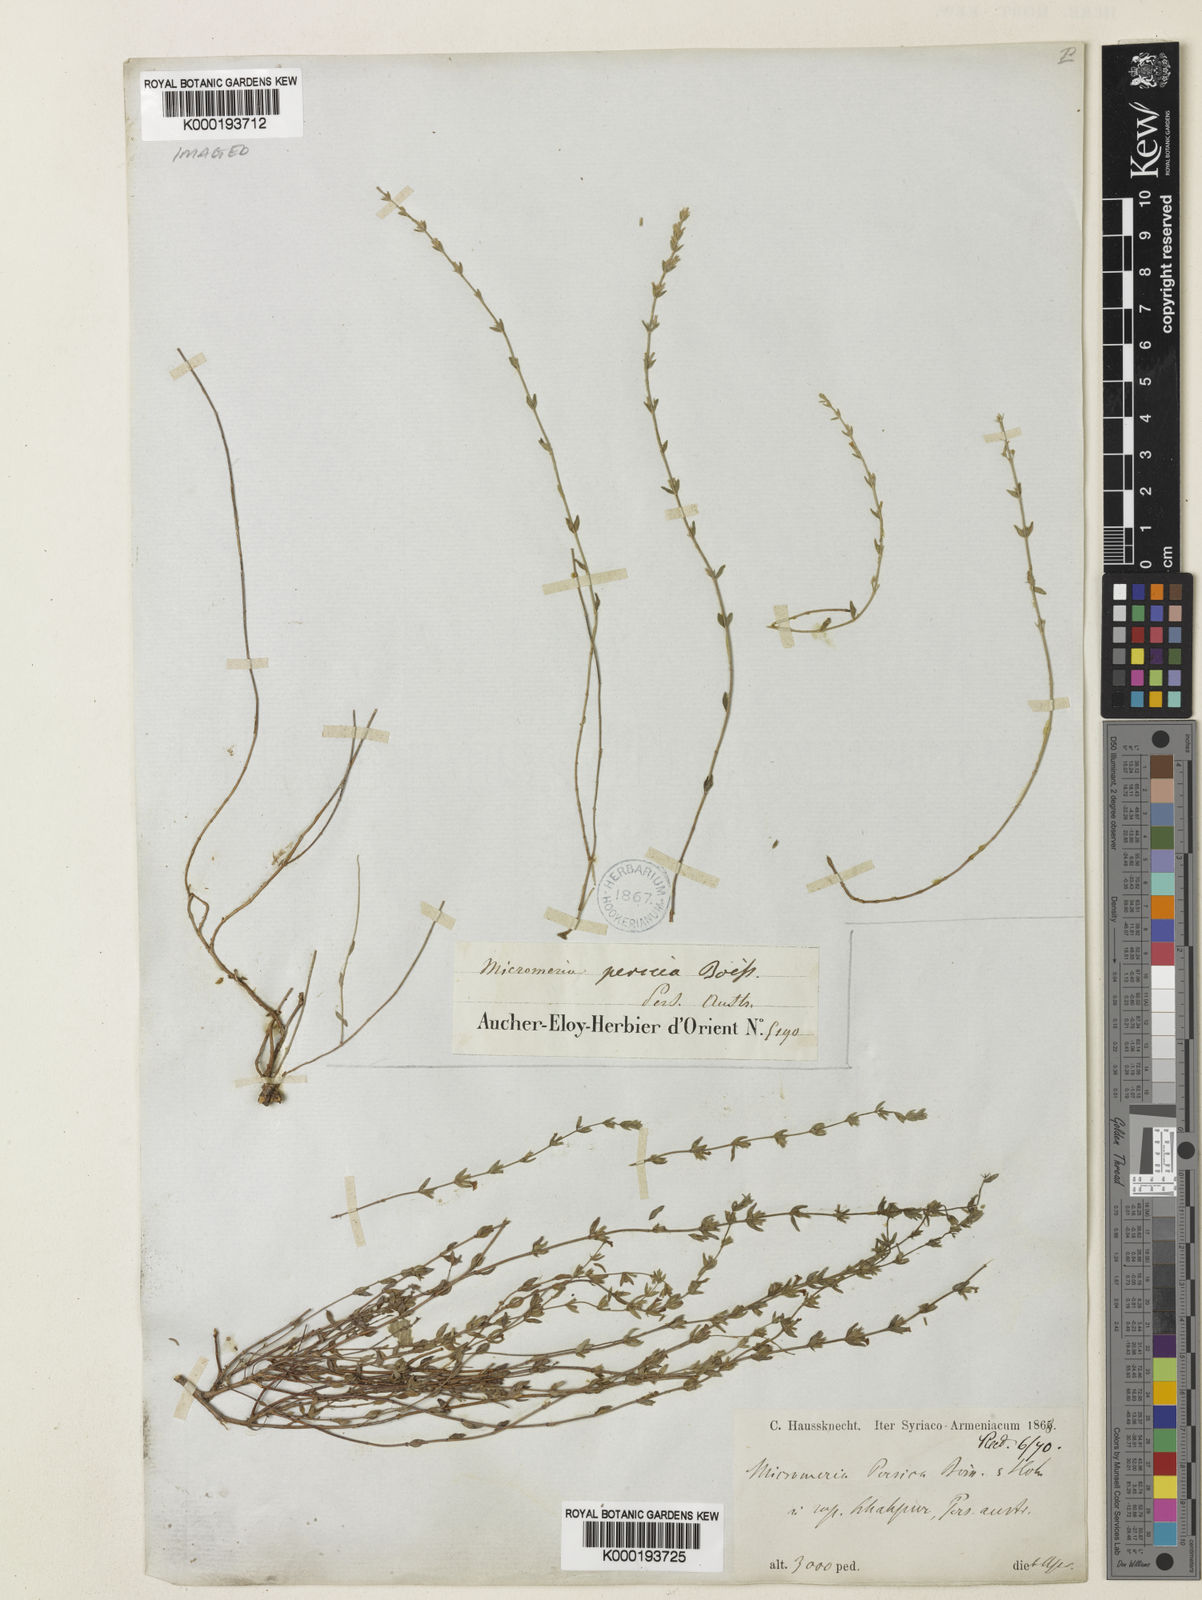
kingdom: Plantae
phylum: Tracheophyta
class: Magnoliopsida
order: Lamiales
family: Lamiaceae
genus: Micromeria
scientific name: Micromeria persica
